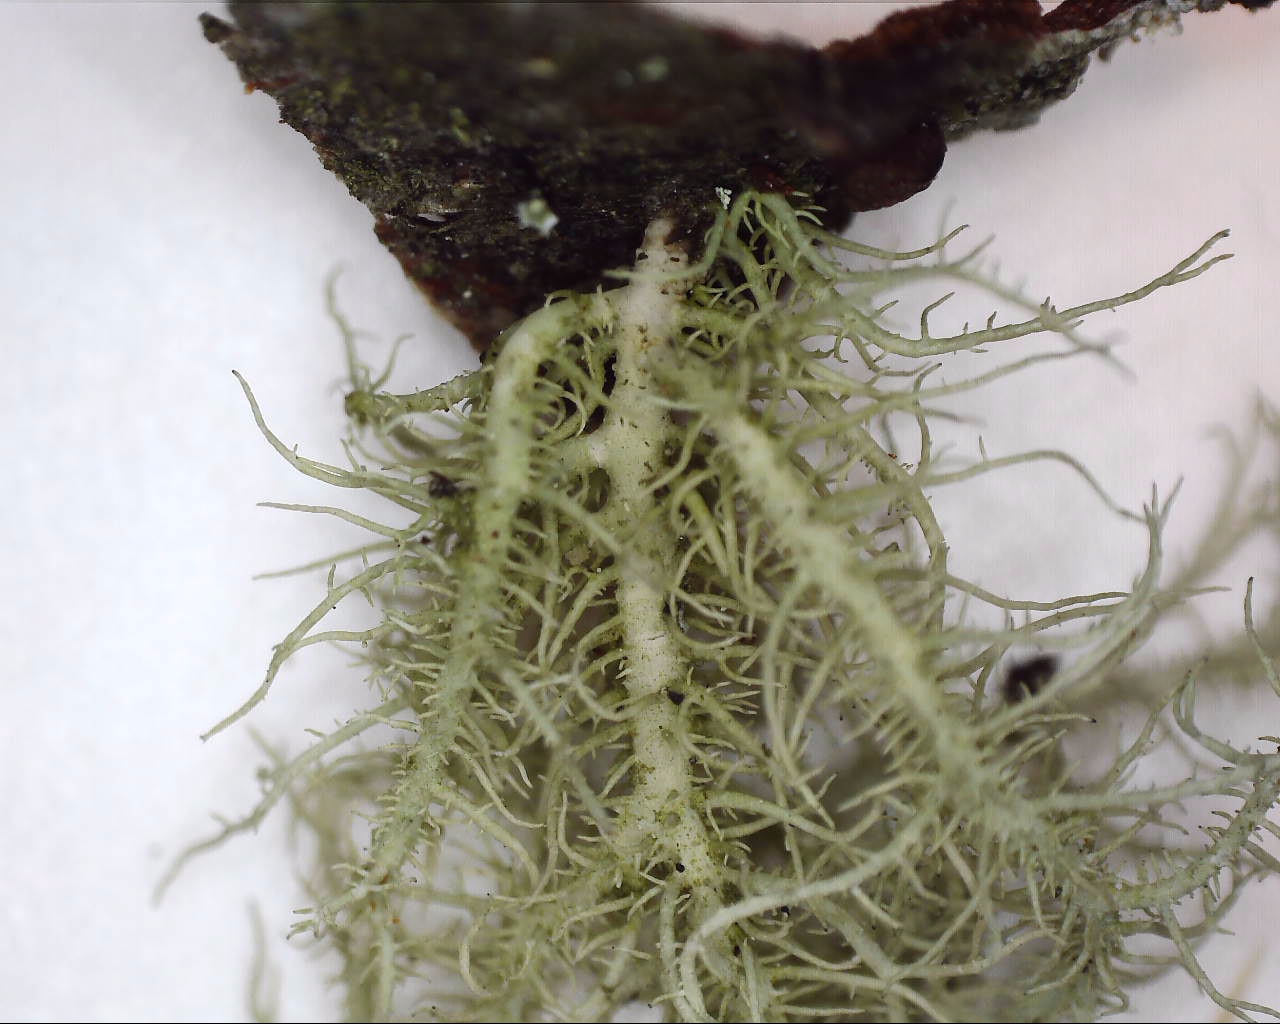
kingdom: Fungi
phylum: Ascomycota
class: Lecanoromycetes
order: Lecanorales
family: Parmeliaceae
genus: Usnea
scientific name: Usnea hirta
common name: liden skæglav
